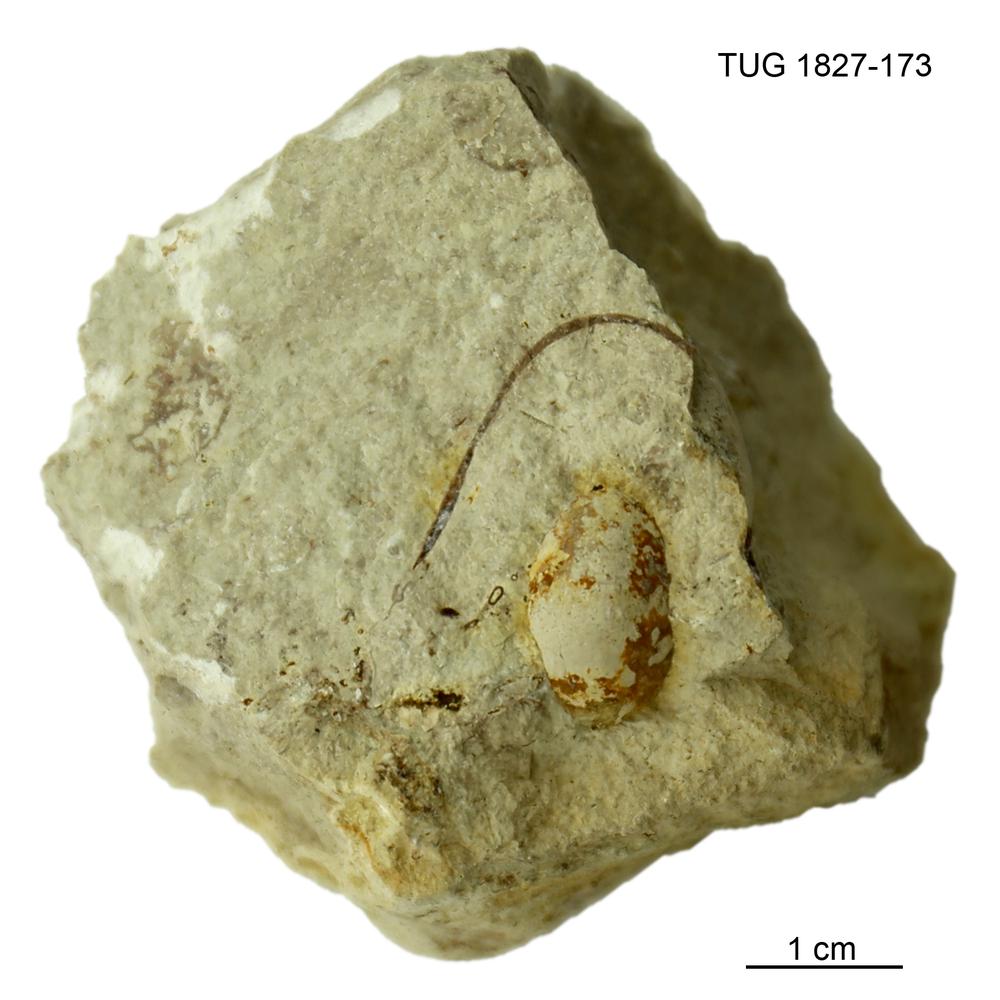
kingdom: Animalia
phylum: Mollusca
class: Gastropoda
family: Sinuitidae
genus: Sinuites
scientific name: Sinuites
